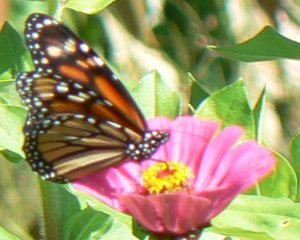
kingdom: Animalia
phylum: Arthropoda
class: Insecta
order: Lepidoptera
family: Nymphalidae
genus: Danaus
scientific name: Danaus plexippus
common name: Monarch
